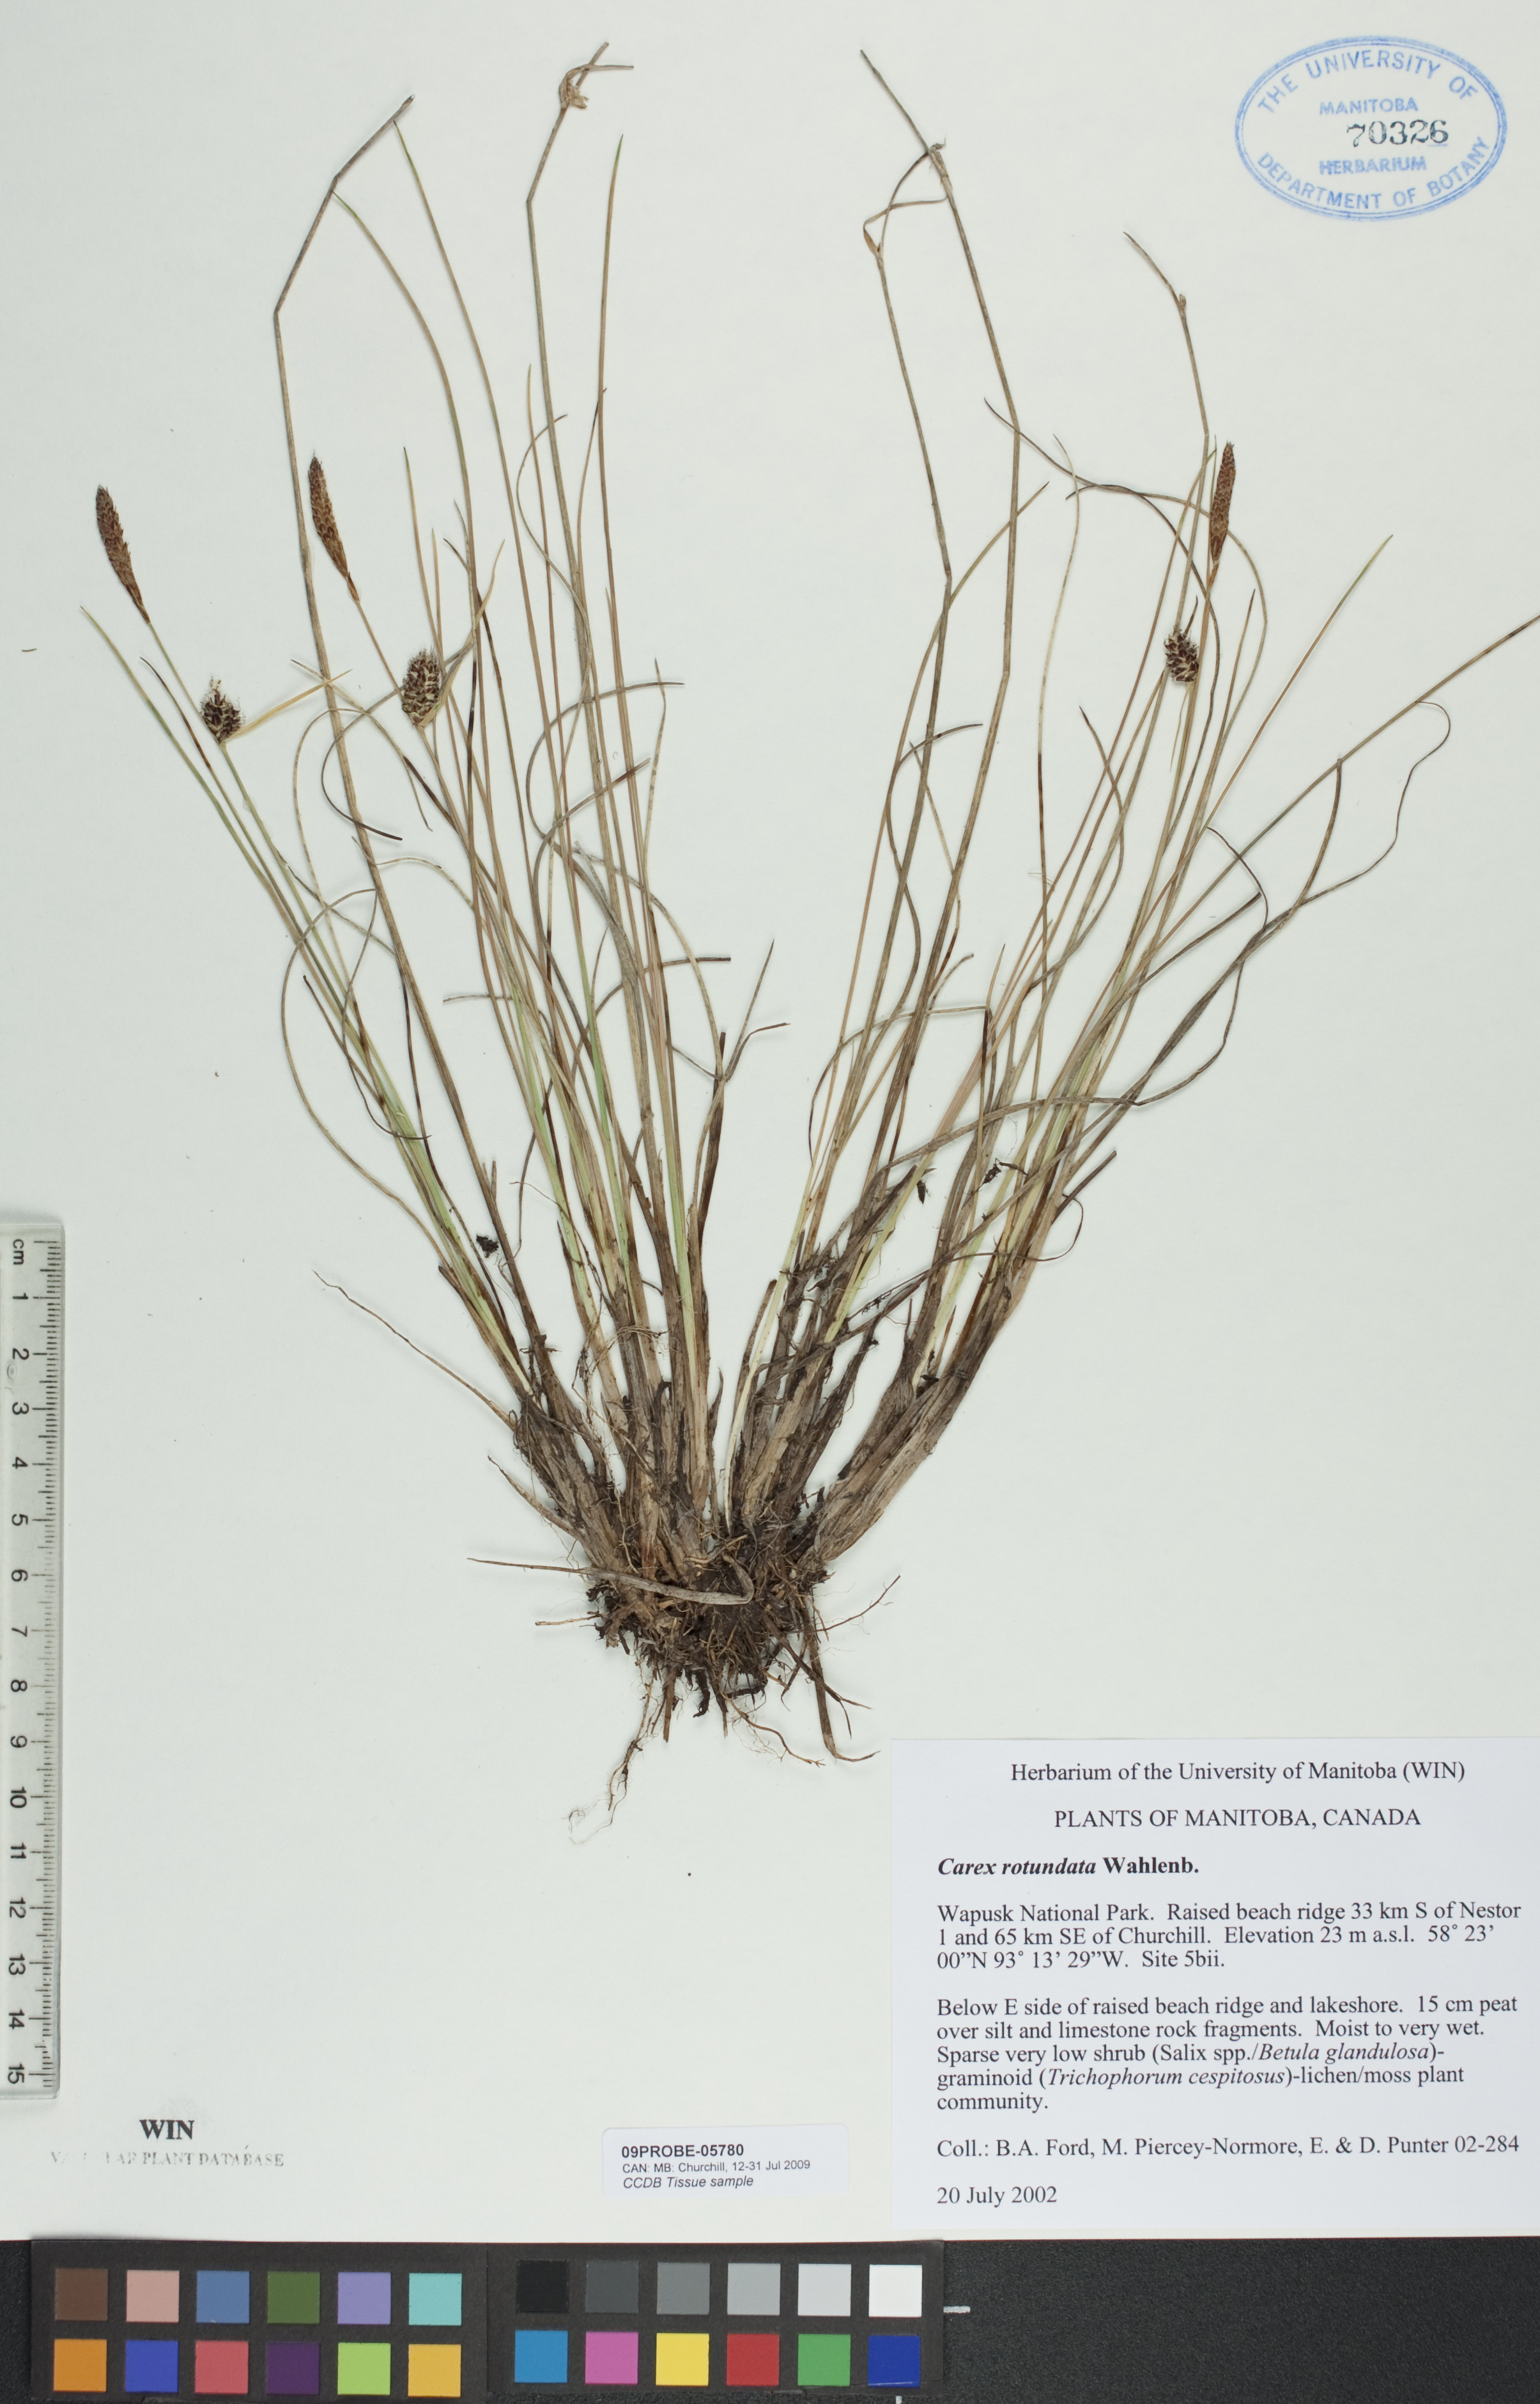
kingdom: Plantae
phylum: Tracheophyta
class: Liliopsida
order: Poales
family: Cyperaceae
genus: Carex
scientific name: Carex rotundata
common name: Round-fruited sedge
